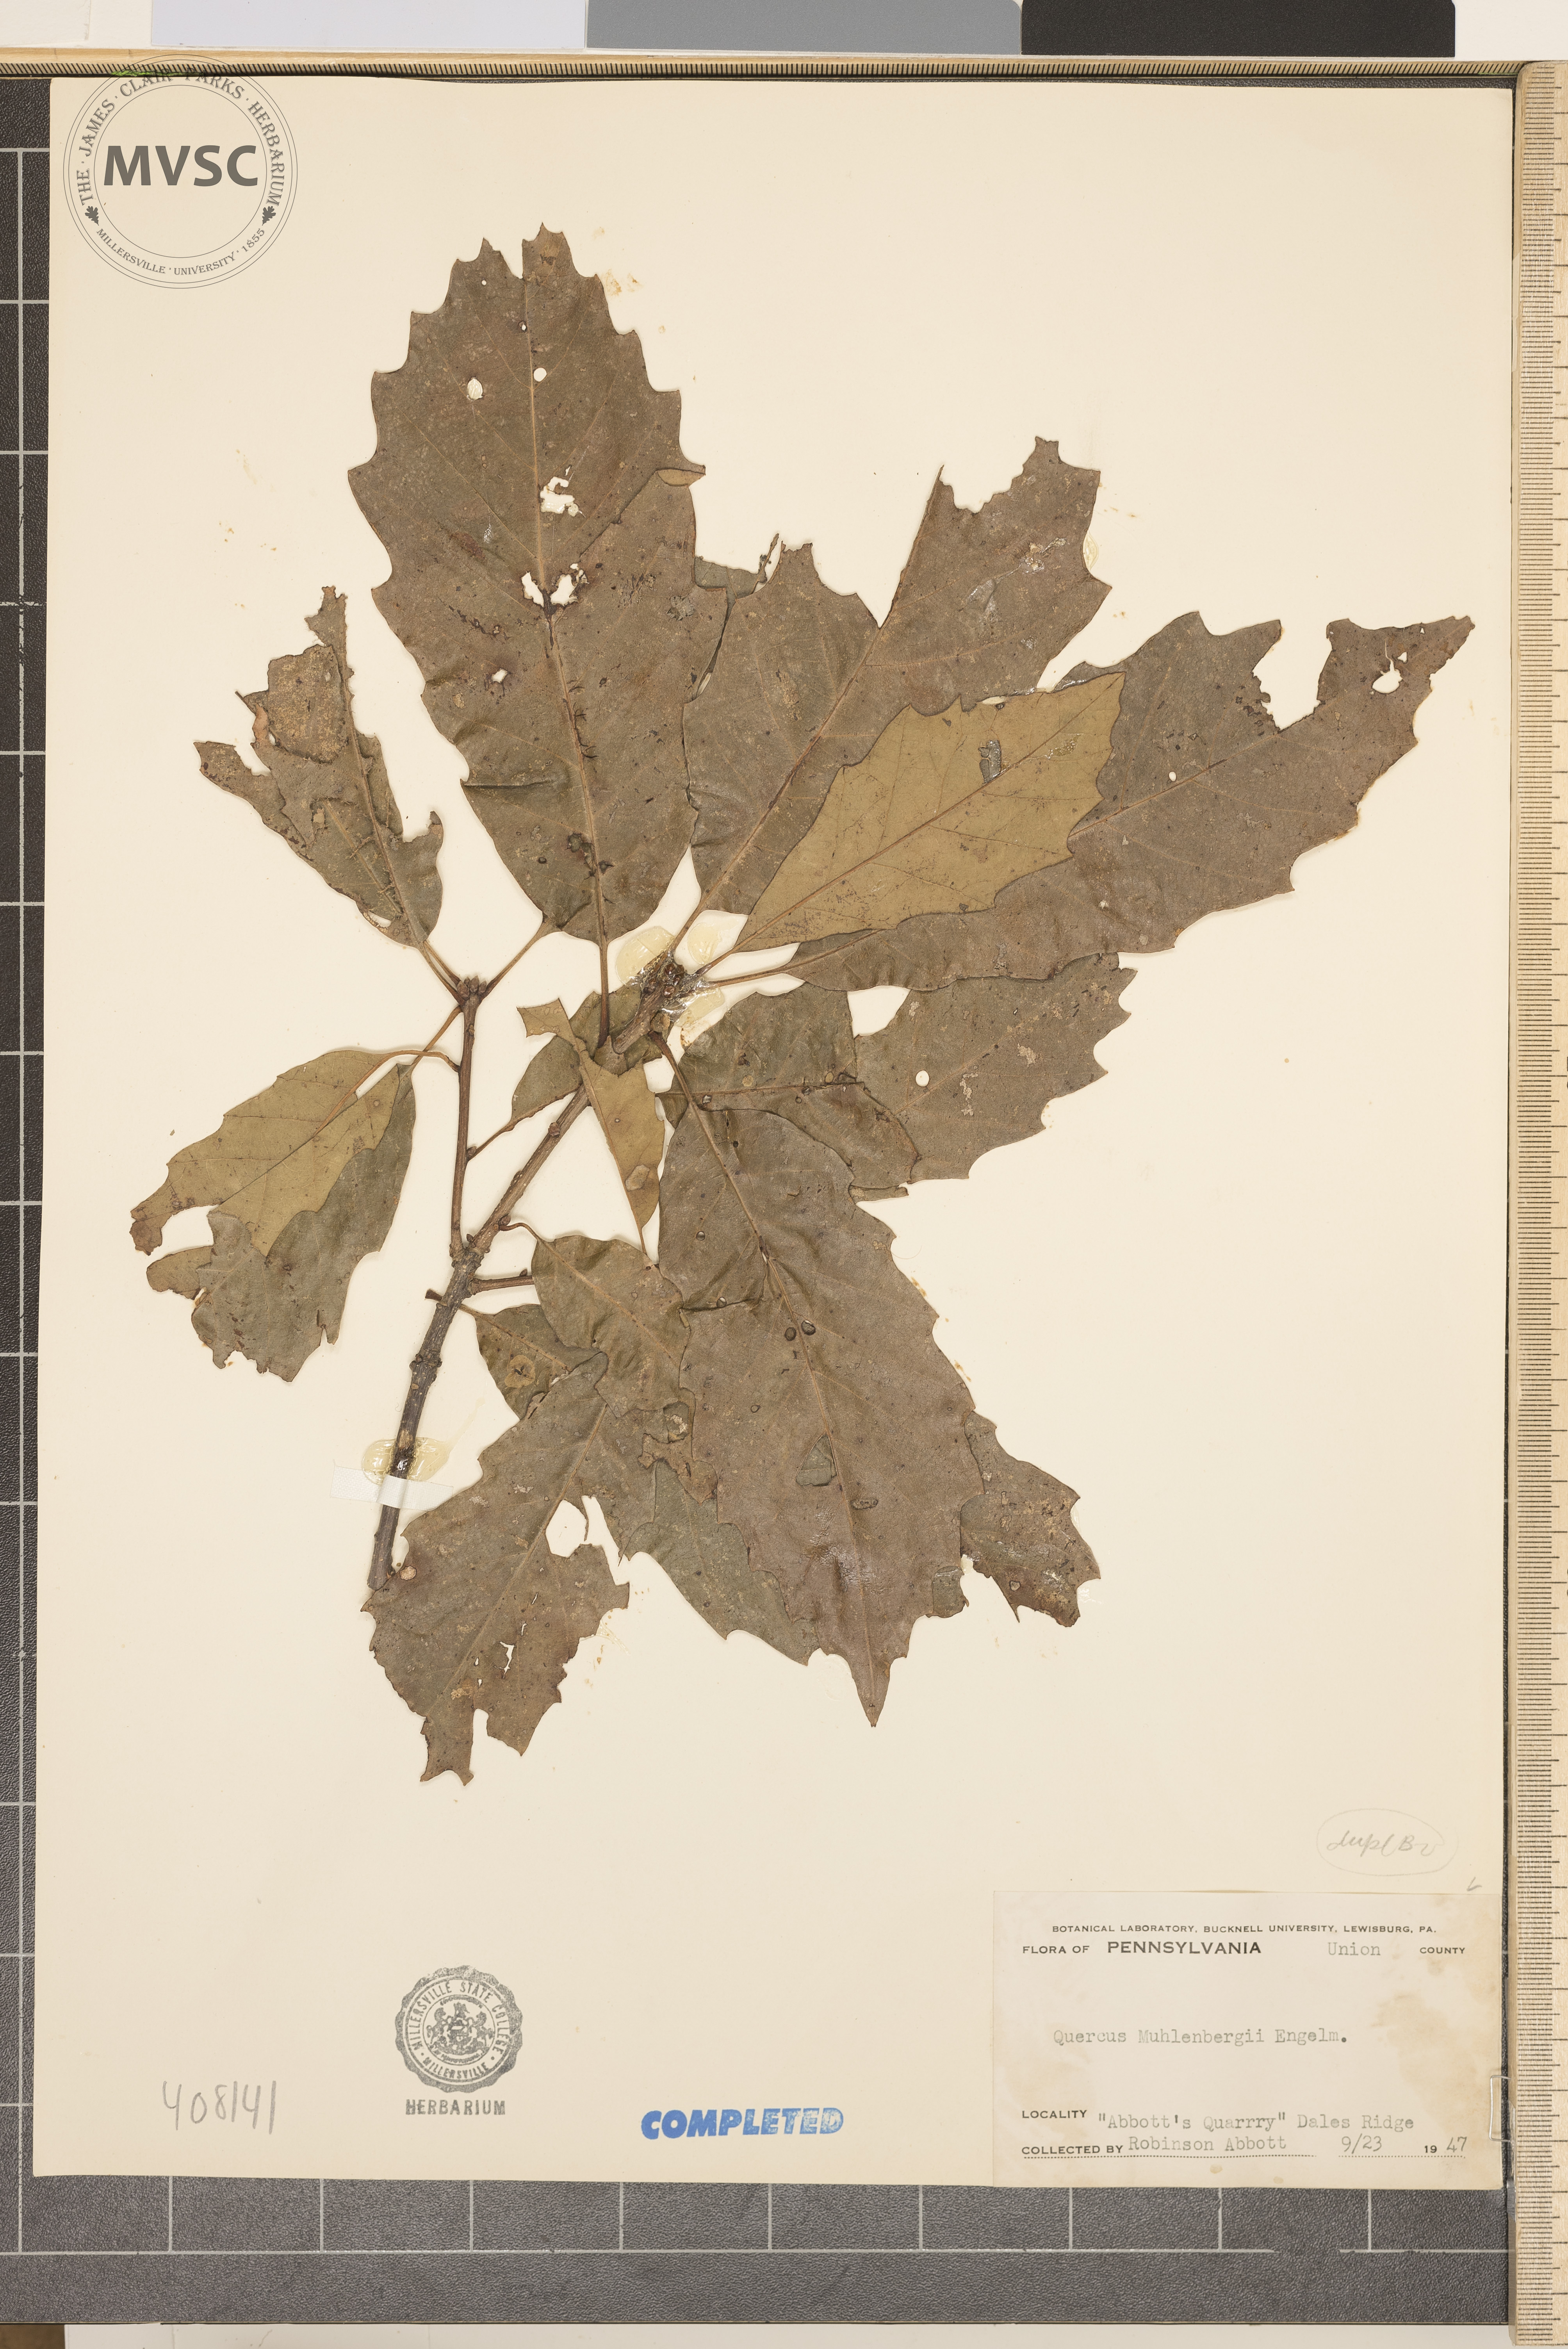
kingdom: Plantae
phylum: Tracheophyta
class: Magnoliopsida
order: Fagales
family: Fagaceae
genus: Quercus
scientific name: Quercus muehlenbergii
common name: Chinkapin Oak
